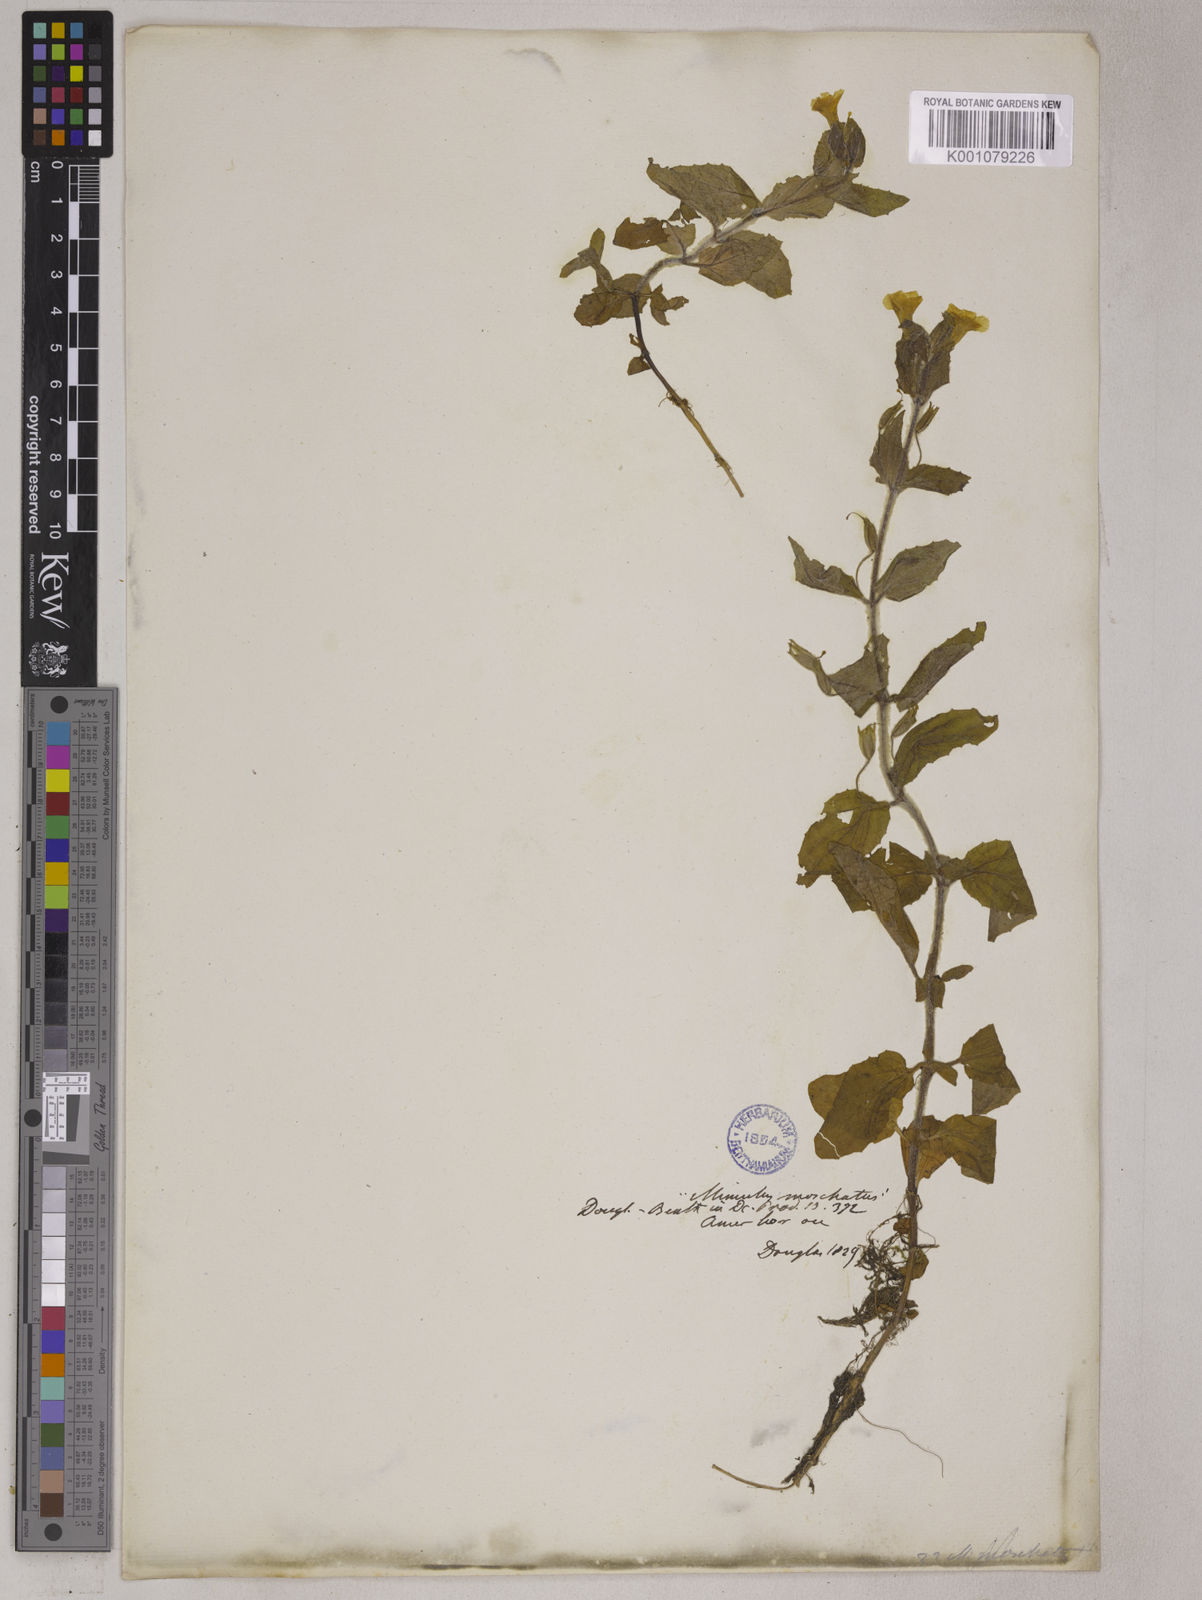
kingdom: Plantae
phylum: Tracheophyta
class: Magnoliopsida
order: Lamiales
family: Phrymaceae
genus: Mimulus
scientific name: Mimulus
